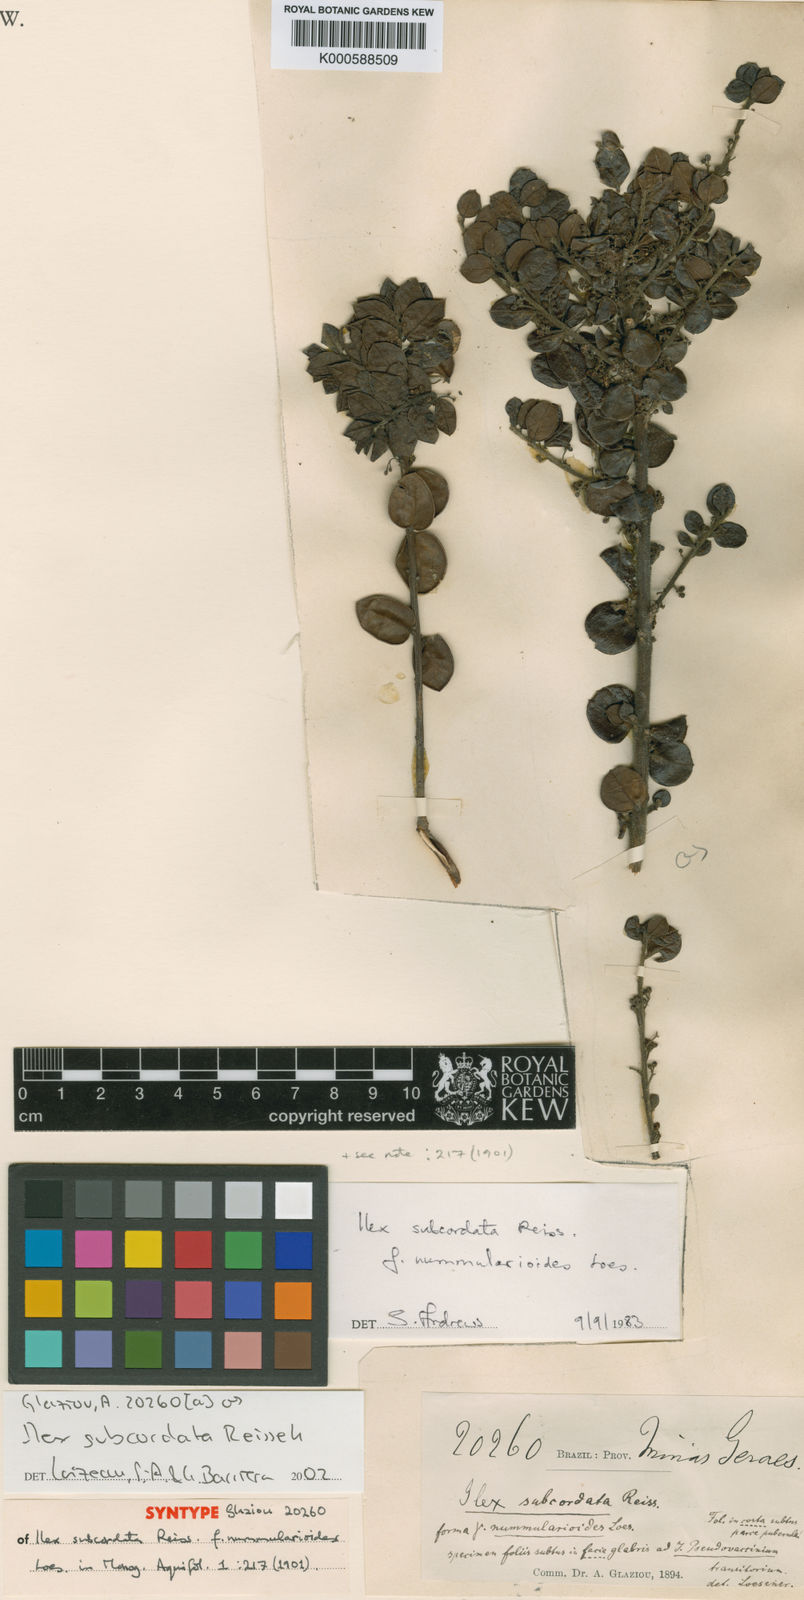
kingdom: Plantae
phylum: Tracheophyta
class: Magnoliopsida
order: Aquifoliales
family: Aquifoliaceae
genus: Ilex
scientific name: Ilex subcordata
